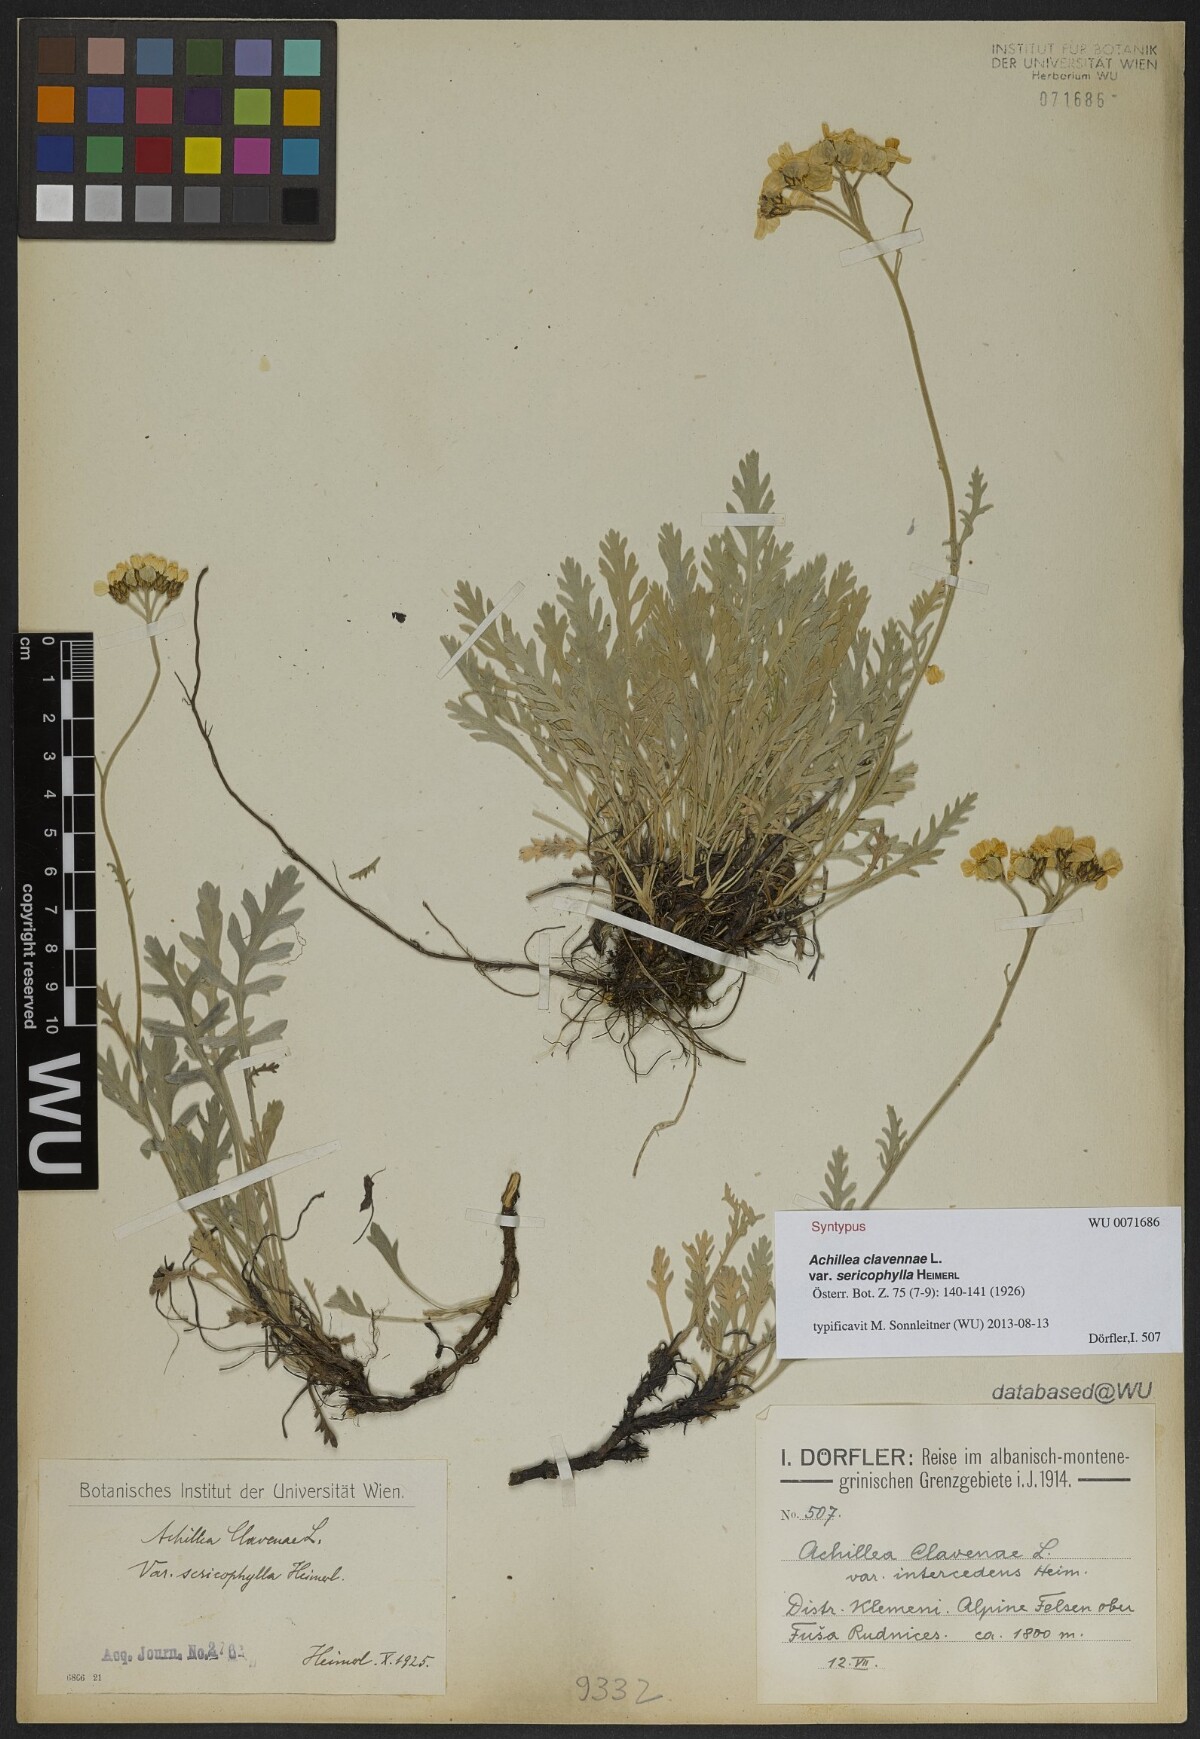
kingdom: Plantae
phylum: Tracheophyta
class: Magnoliopsida
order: Asterales
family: Asteraceae
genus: Achillea
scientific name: Achillea clavennae
